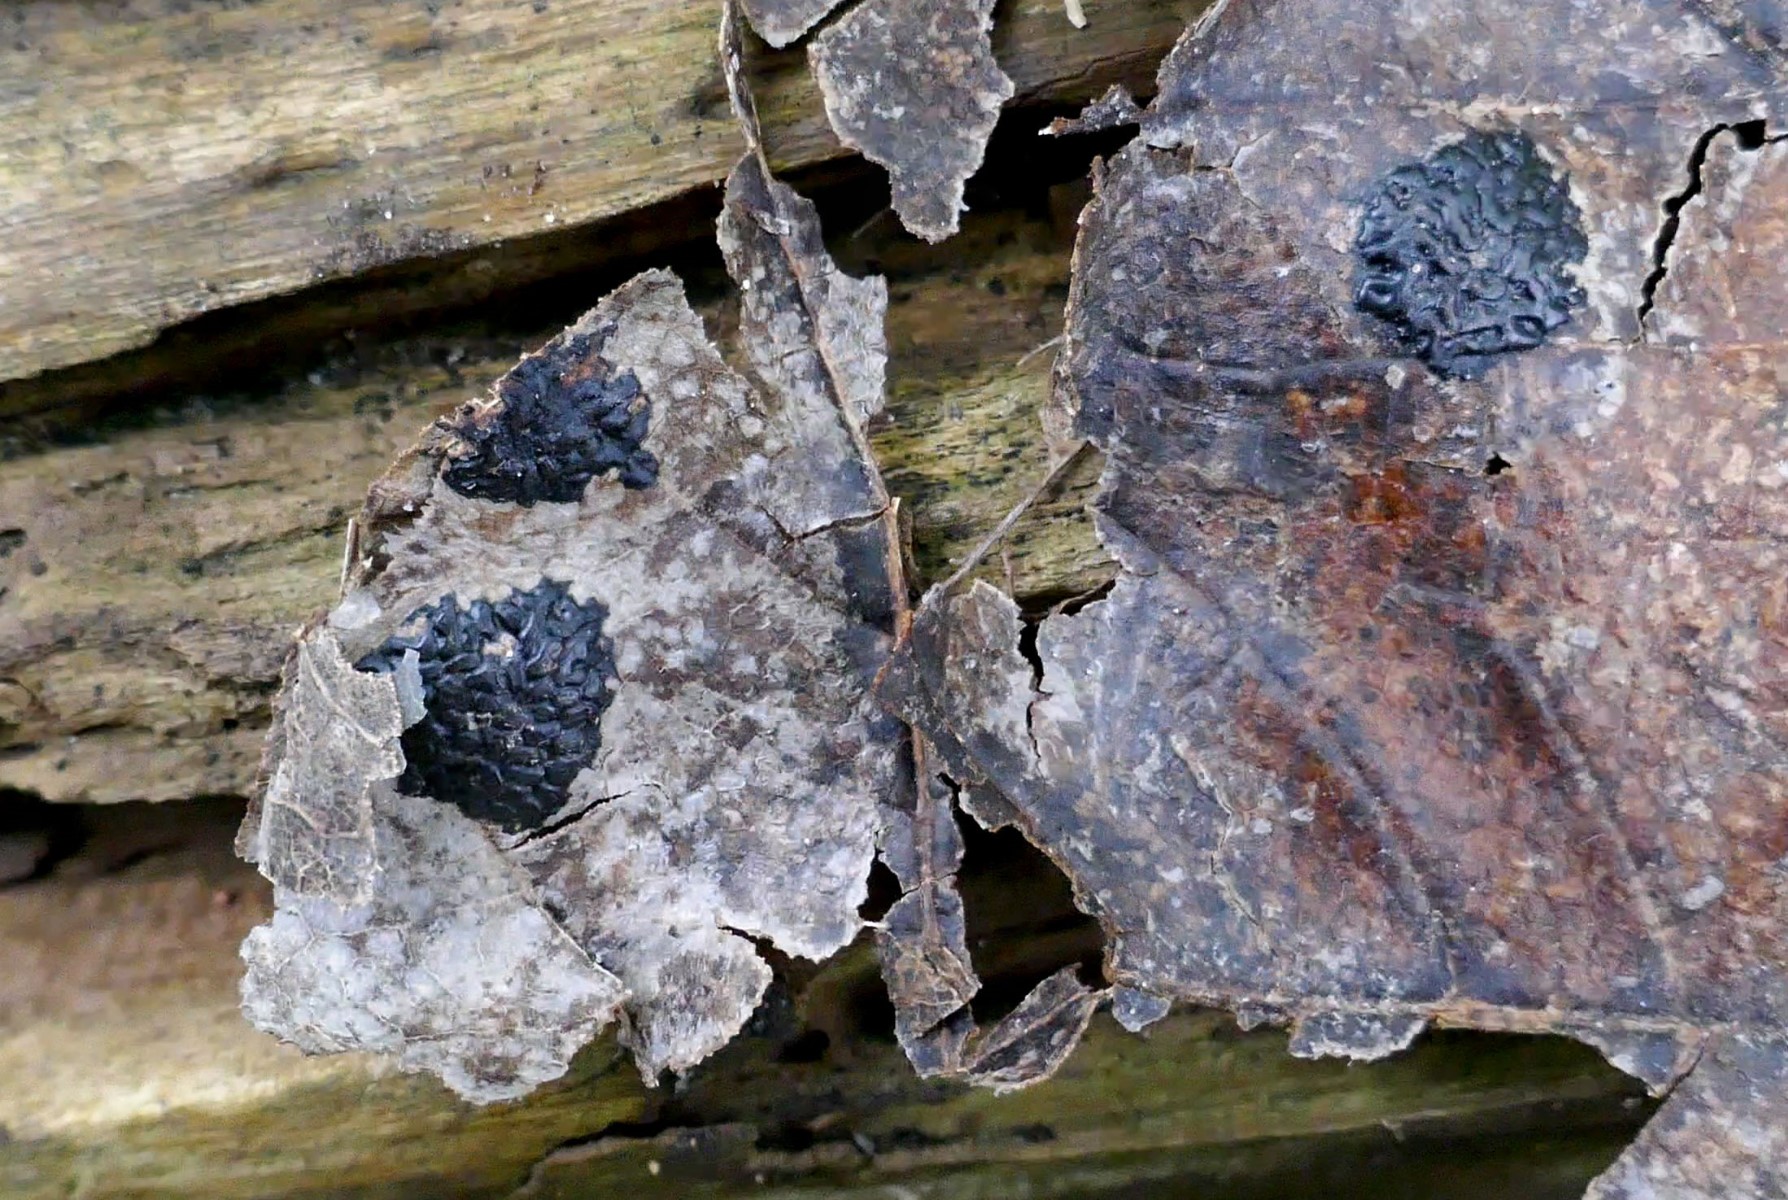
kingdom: Fungi
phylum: Ascomycota
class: Leotiomycetes
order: Rhytismatales
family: Rhytismataceae
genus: Rhytisma
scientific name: Rhytisma acerinum
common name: ahorn-rynkeplet
